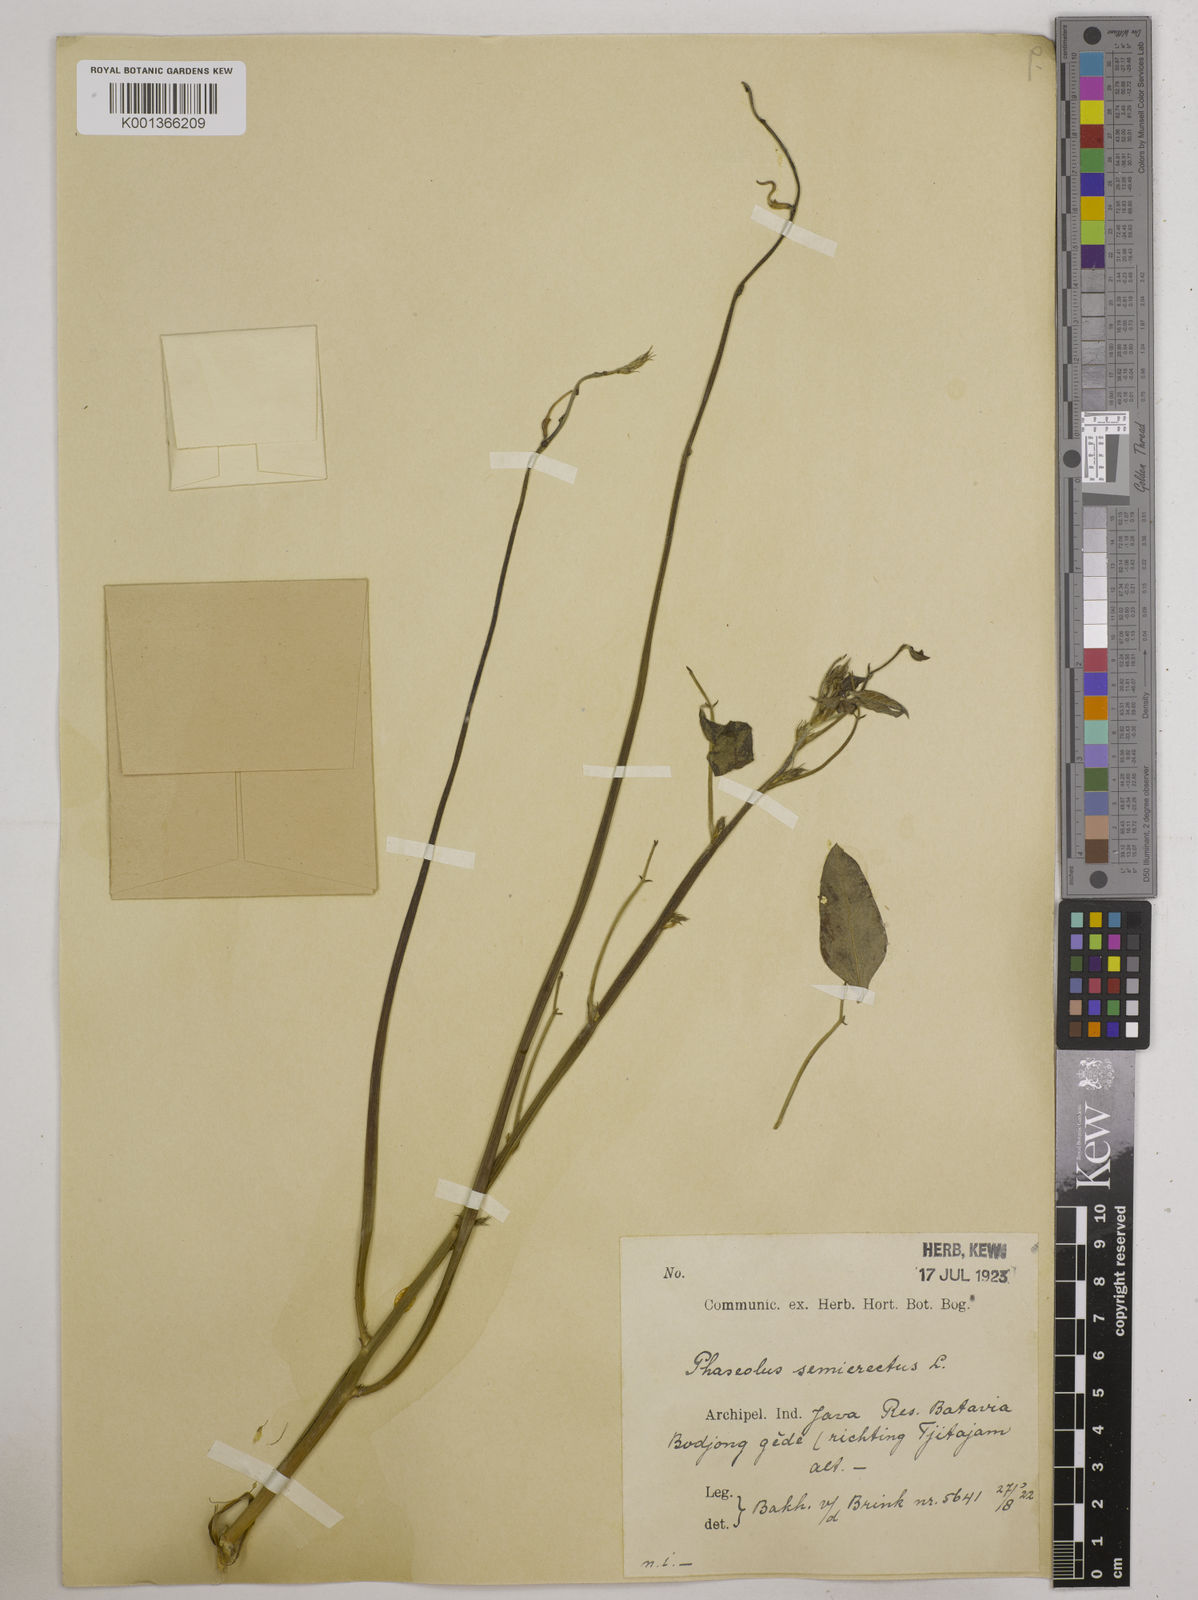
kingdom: Plantae
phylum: Tracheophyta
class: Magnoliopsida
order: Fabales
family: Fabaceae
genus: Macroptilium
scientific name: Macroptilium lathyroides
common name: Wild bushbean
